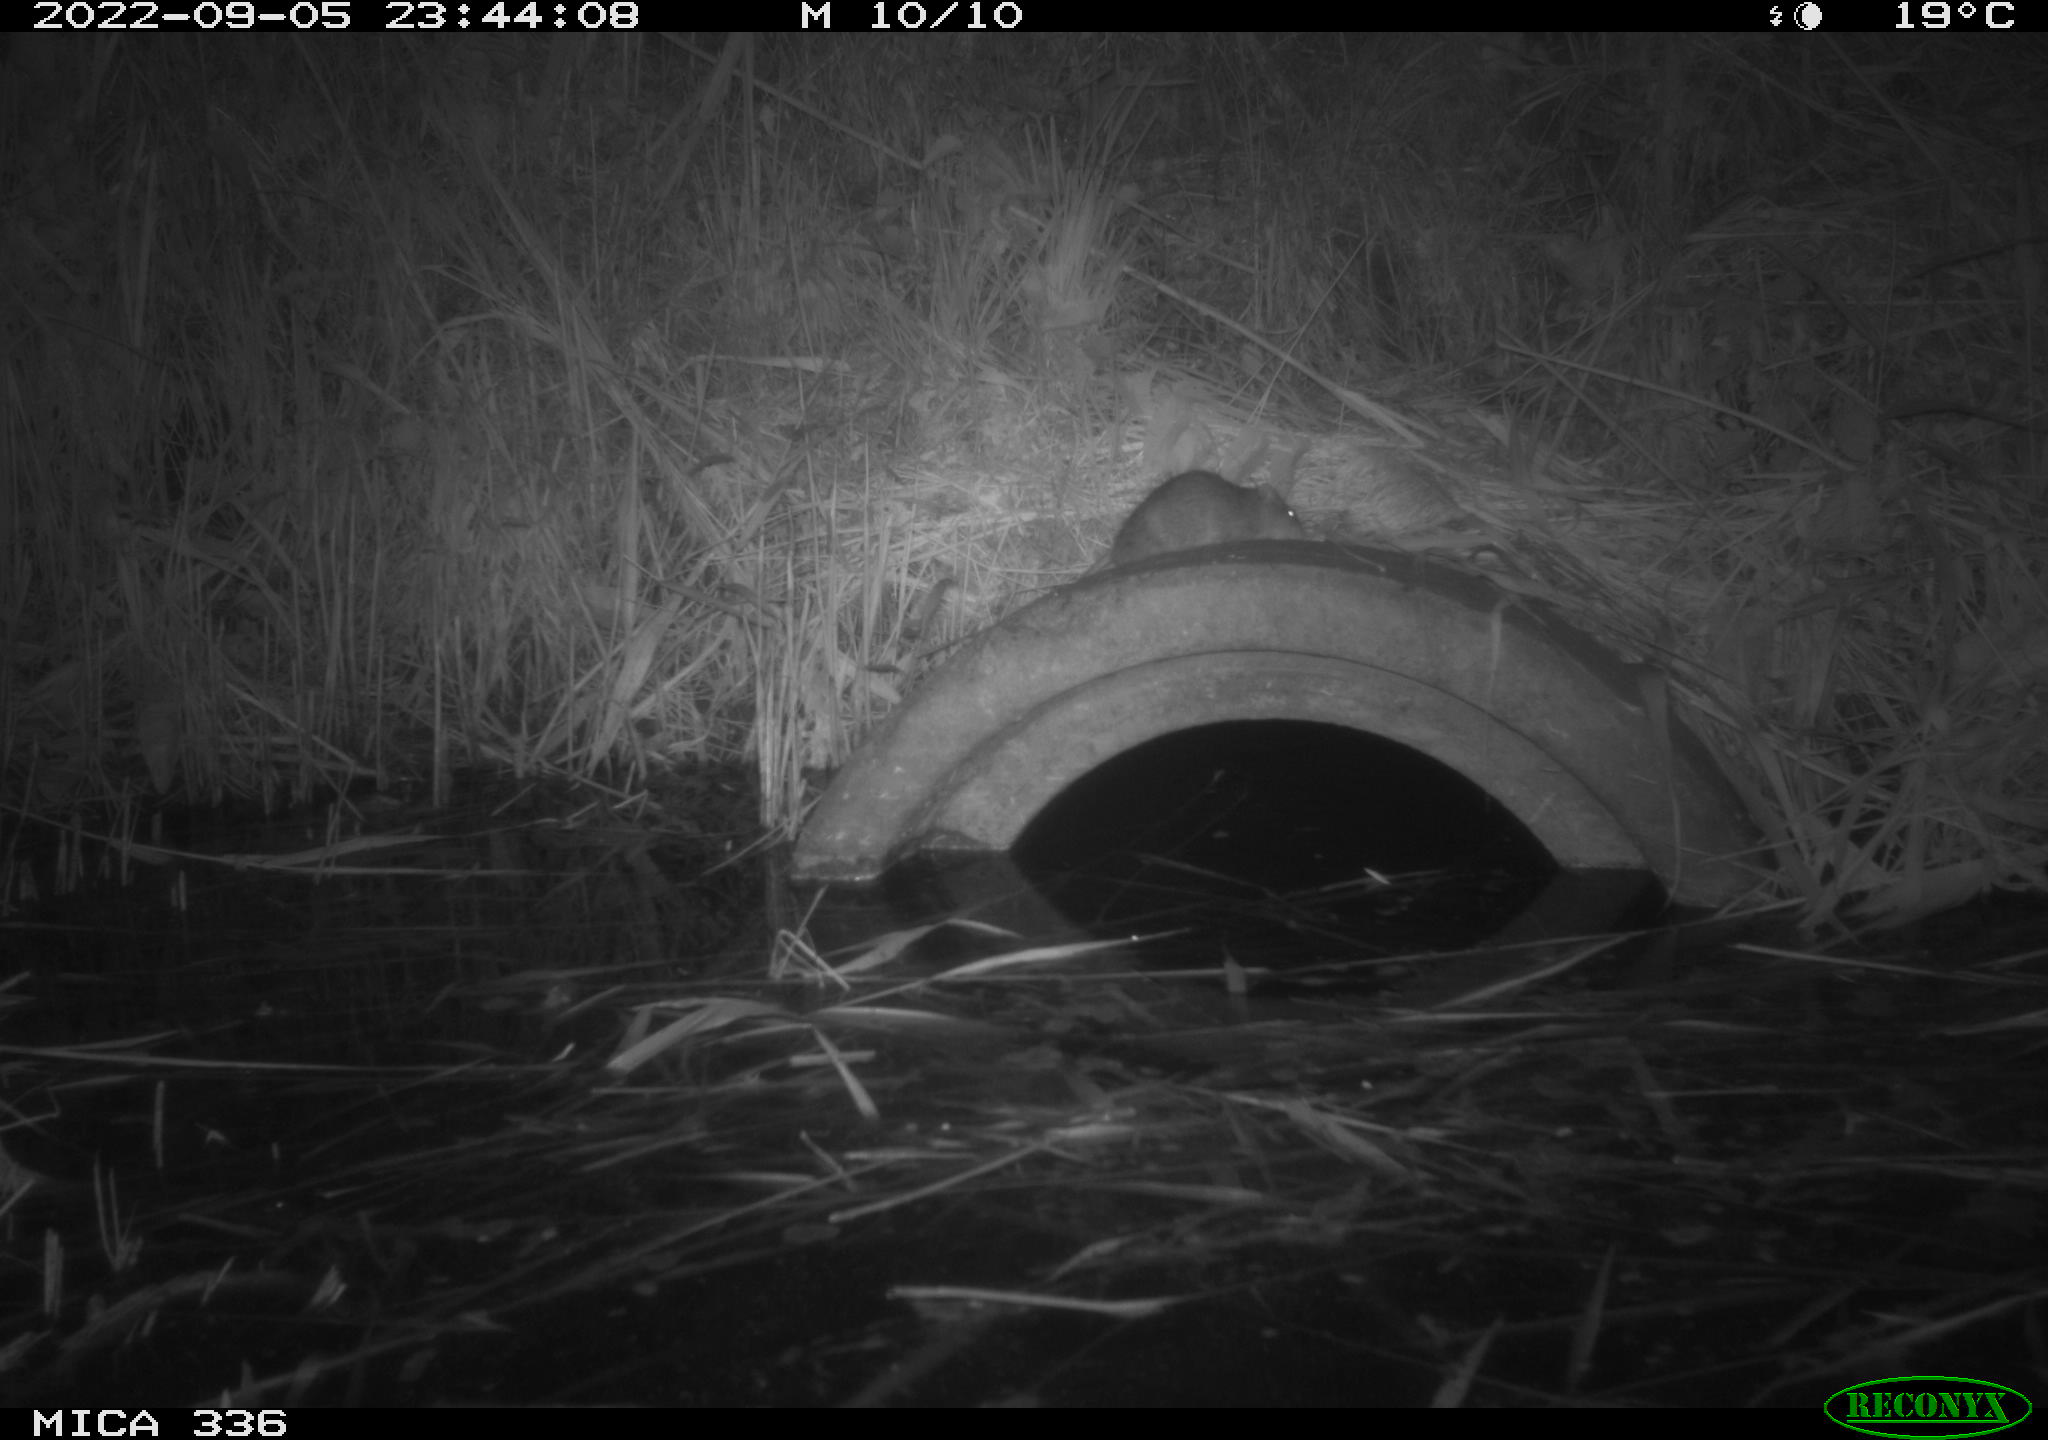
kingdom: Animalia
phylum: Chordata
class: Mammalia
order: Rodentia
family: Muridae
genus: Rattus
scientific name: Rattus norvegicus
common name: Brown rat
